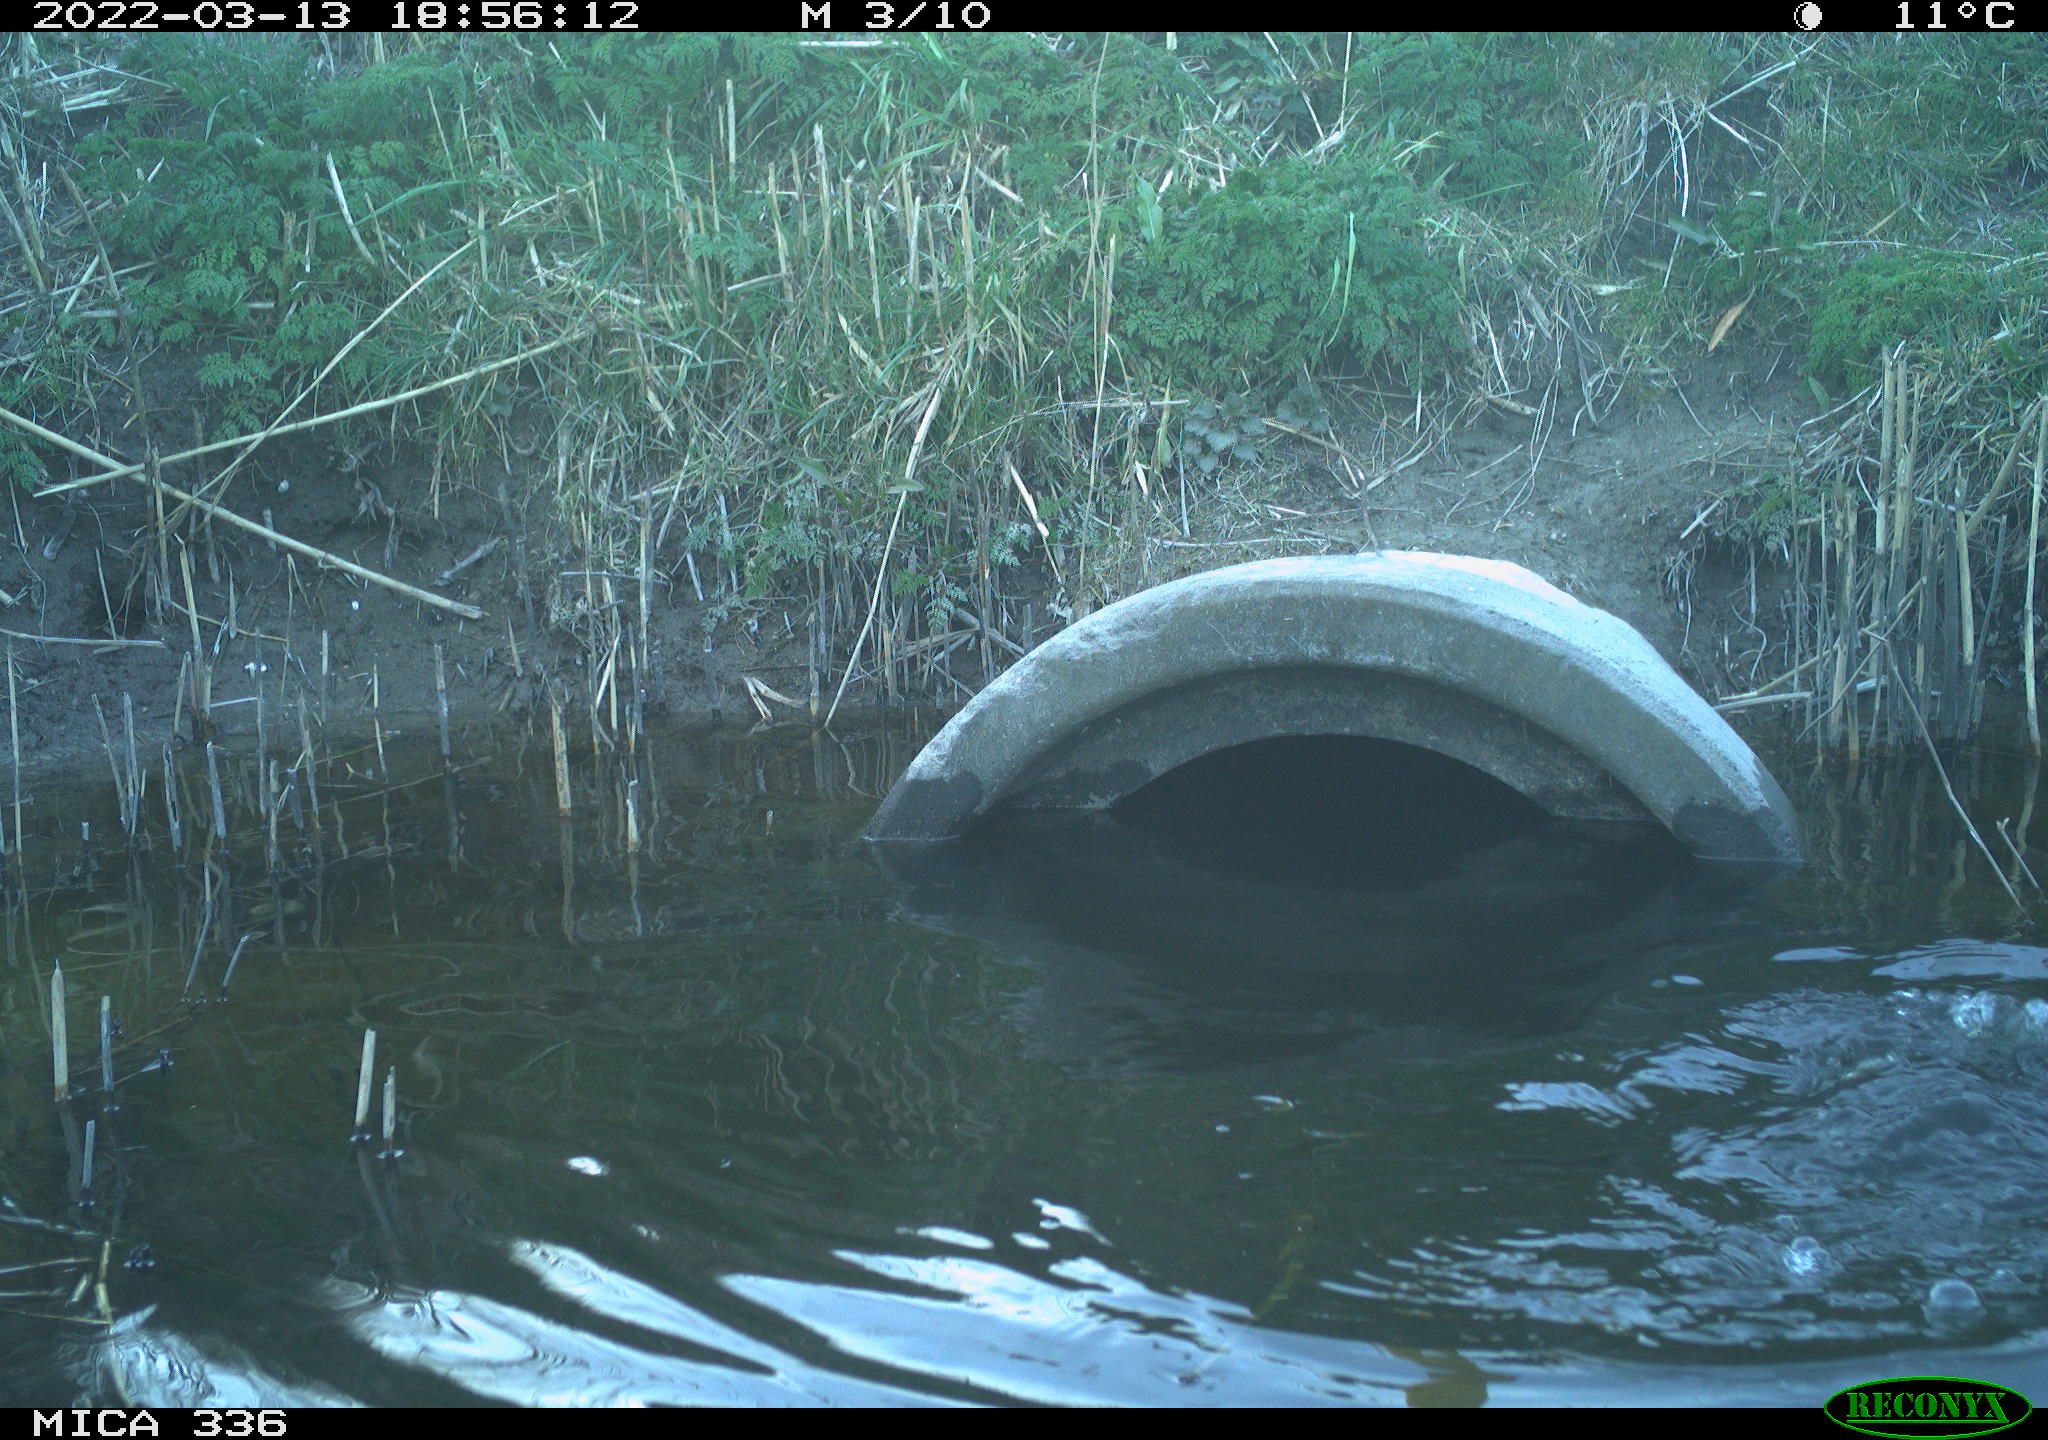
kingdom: Animalia
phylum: Chordata
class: Aves
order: Suliformes
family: Phalacrocoracidae
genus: Phalacrocorax
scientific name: Phalacrocorax carbo
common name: Great cormorant
